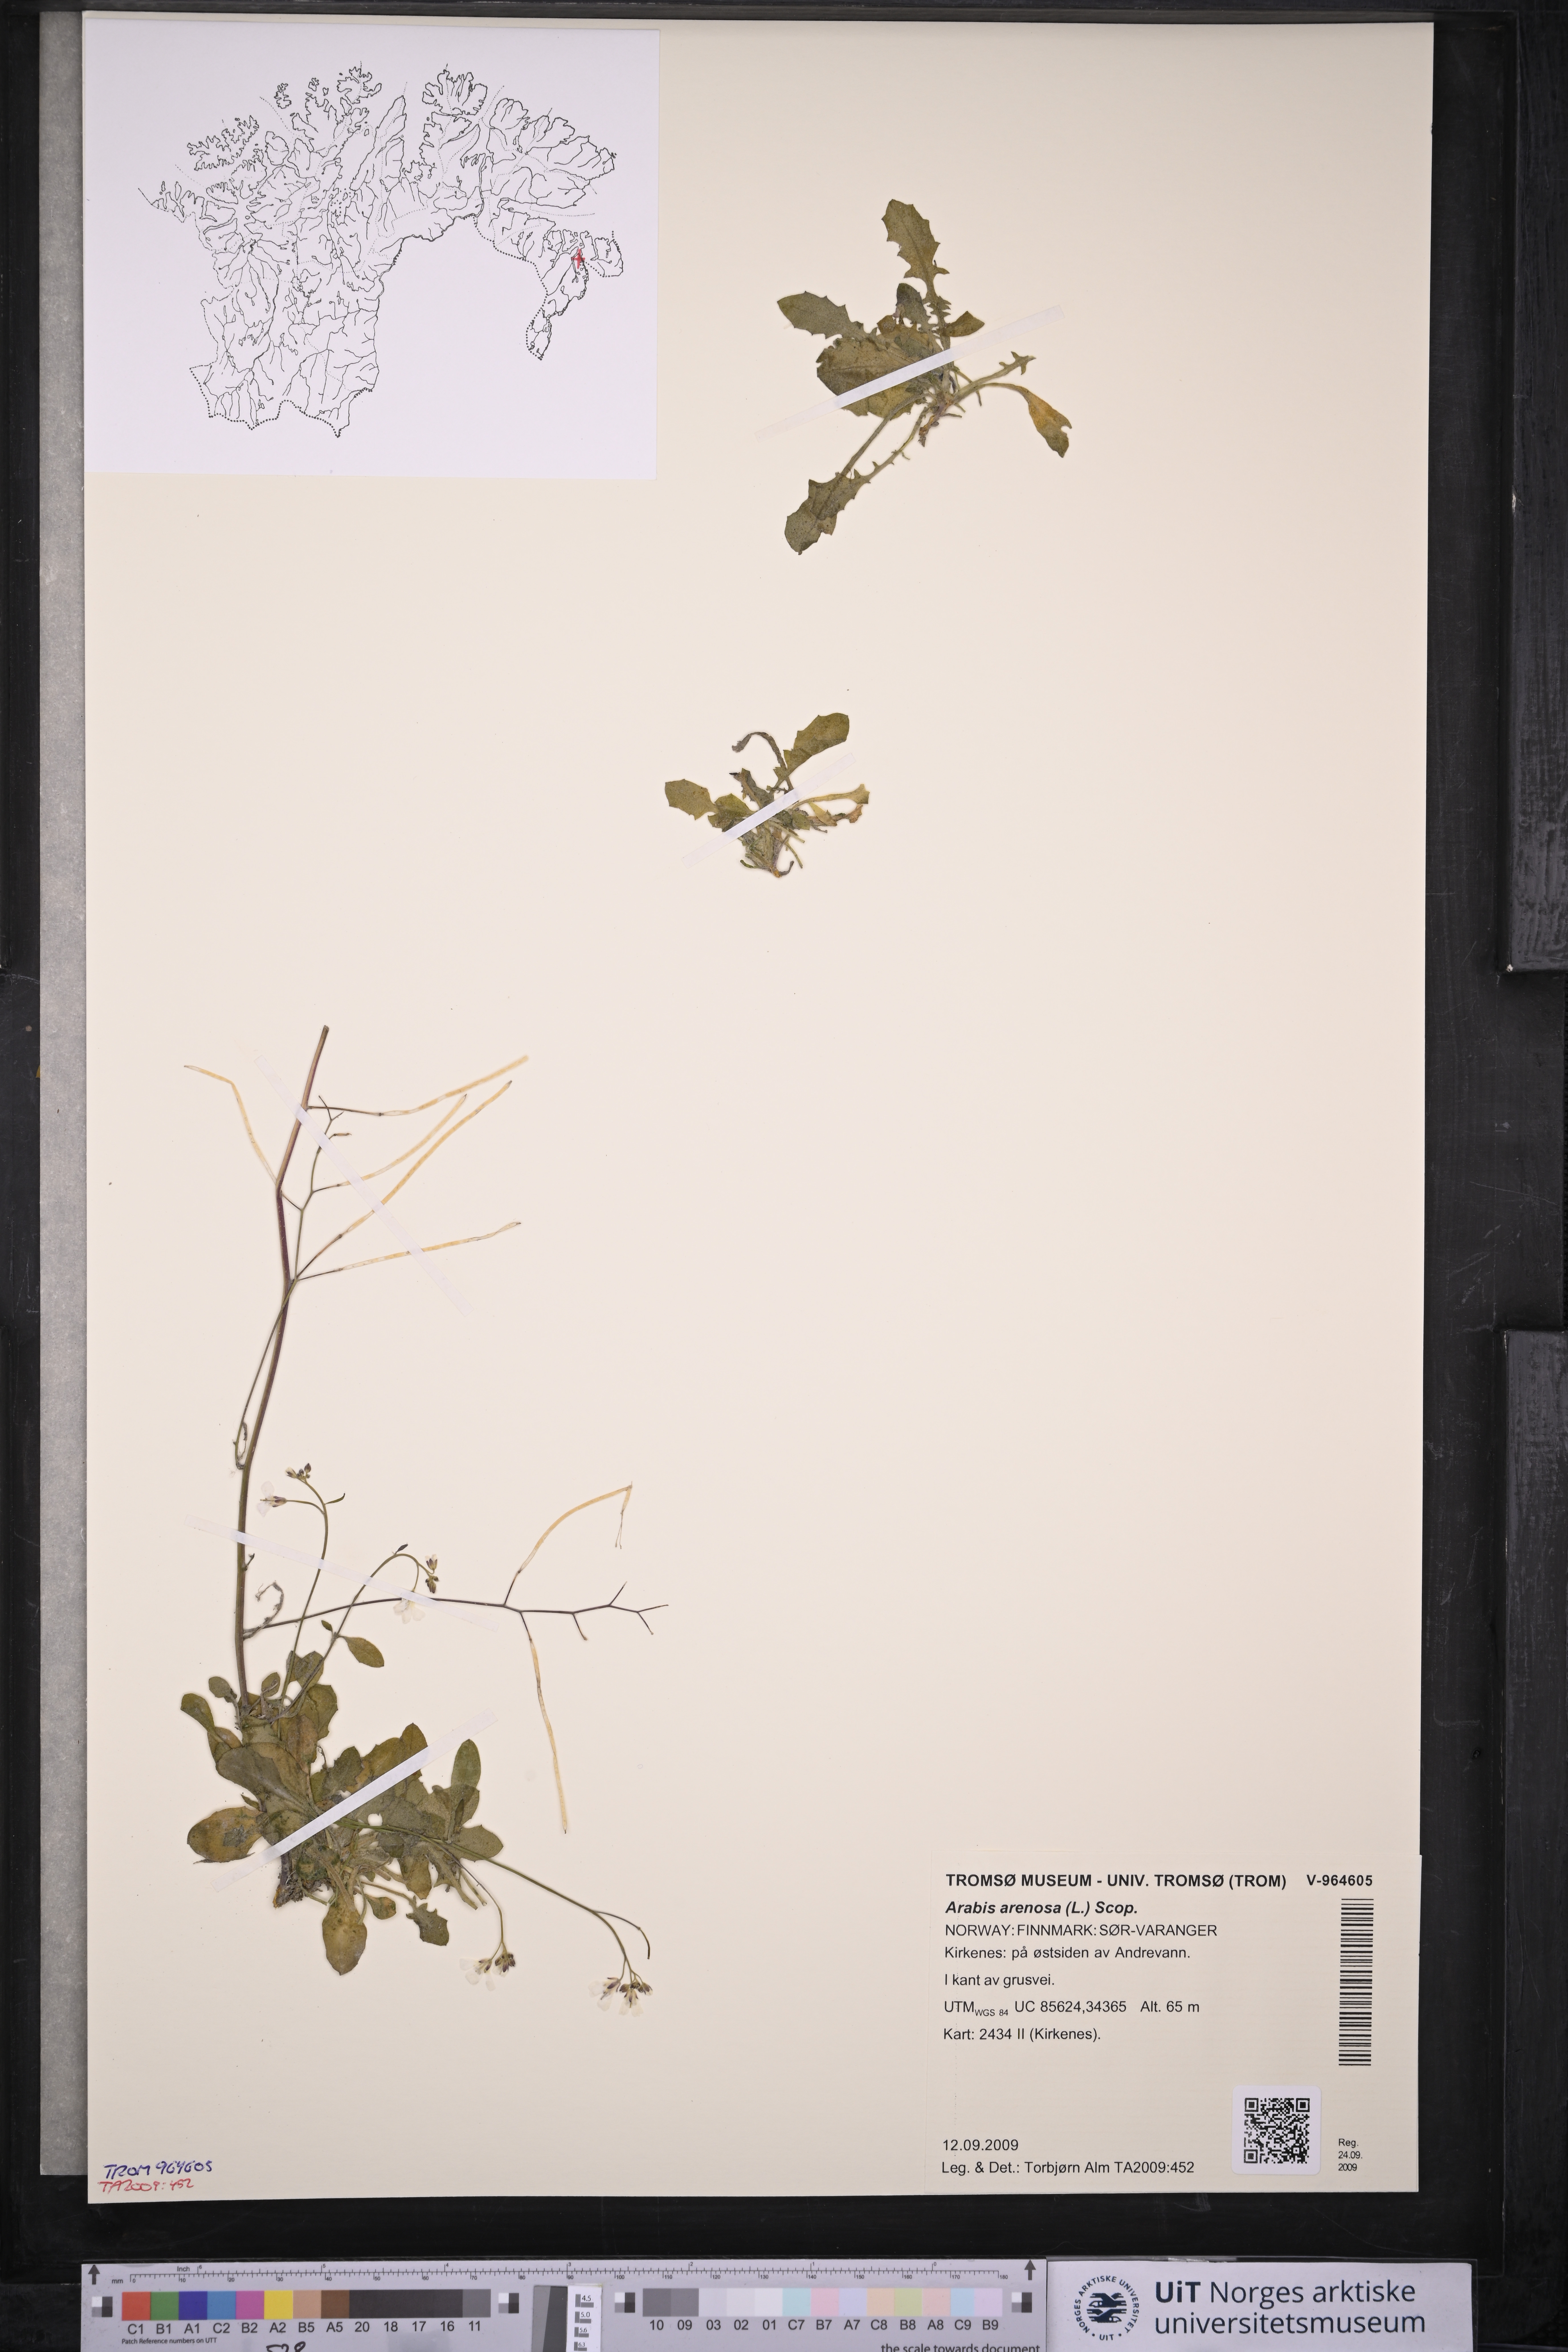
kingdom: Plantae
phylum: Tracheophyta
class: Magnoliopsida
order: Brassicales
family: Brassicaceae
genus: Arabidopsis
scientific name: Arabidopsis arenosa
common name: Sand rock-cress
